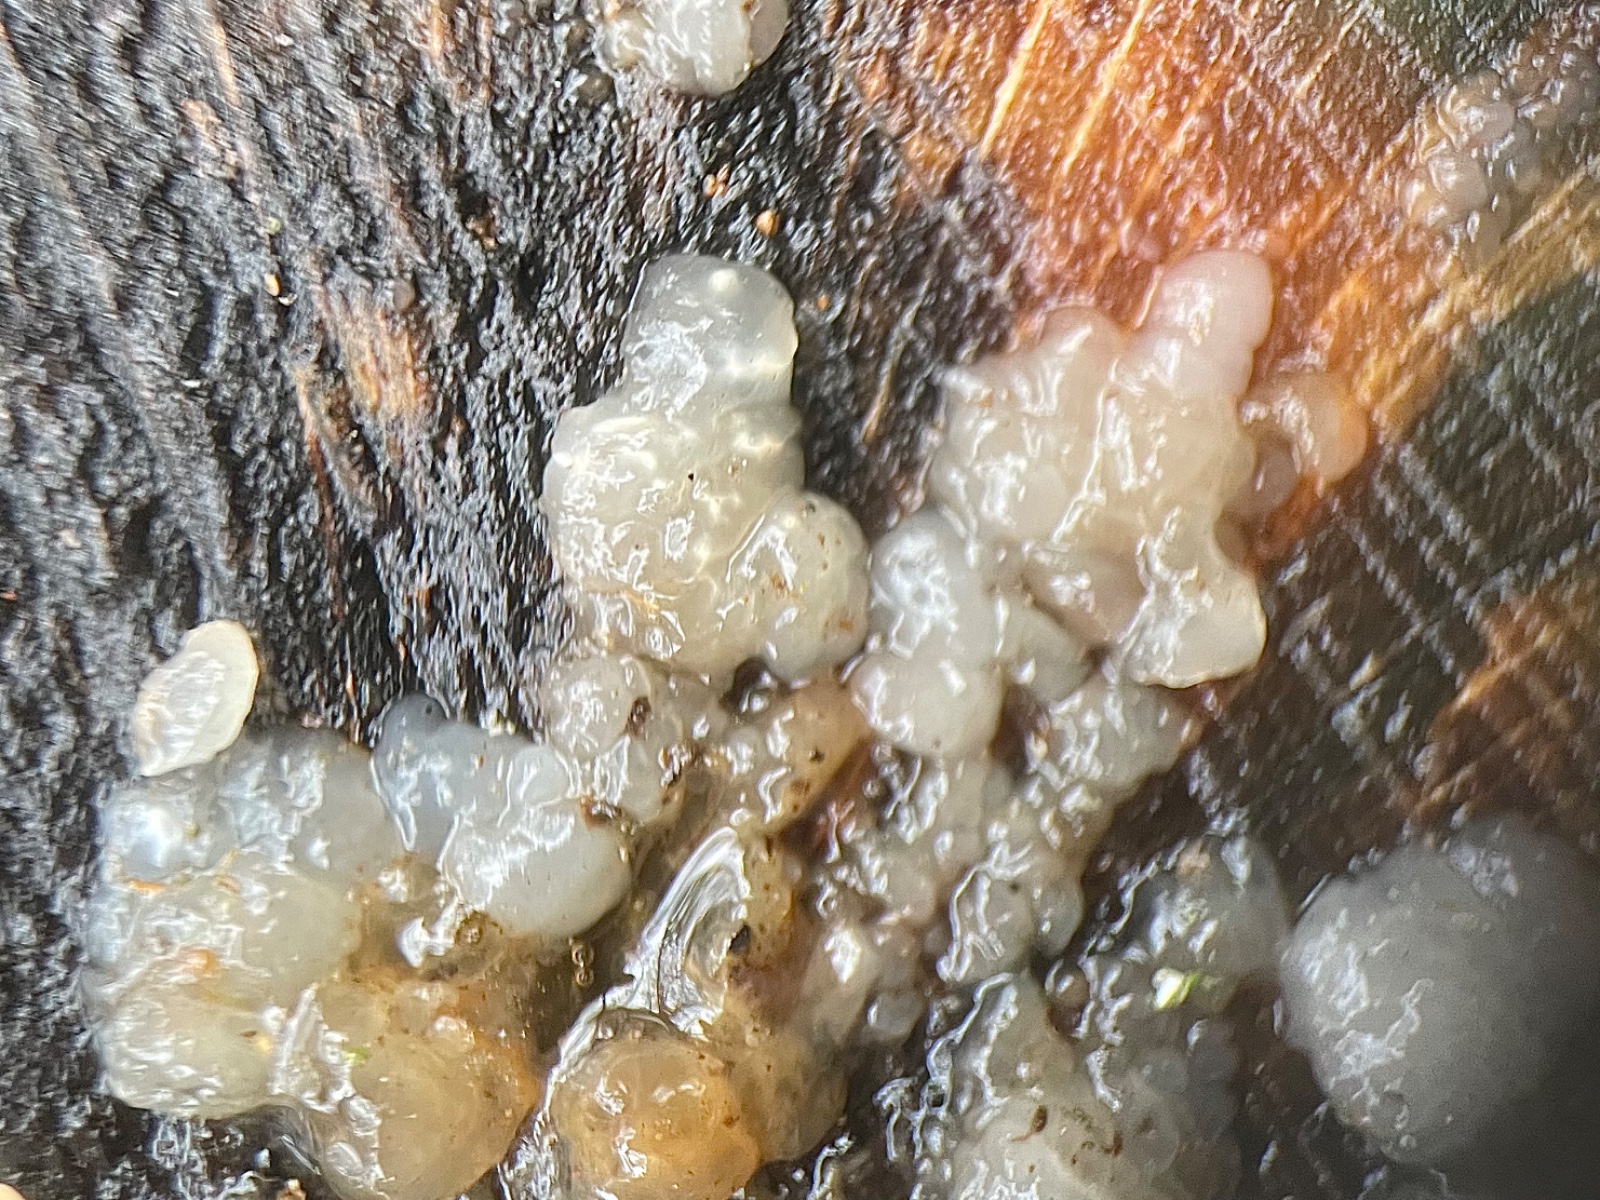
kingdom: Fungi
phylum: Basidiomycota
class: Agaricomycetes
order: Auriculariales
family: Hyaloriaceae
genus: Myxarium
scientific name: Myxarium nucleatum
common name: klar bævretop
